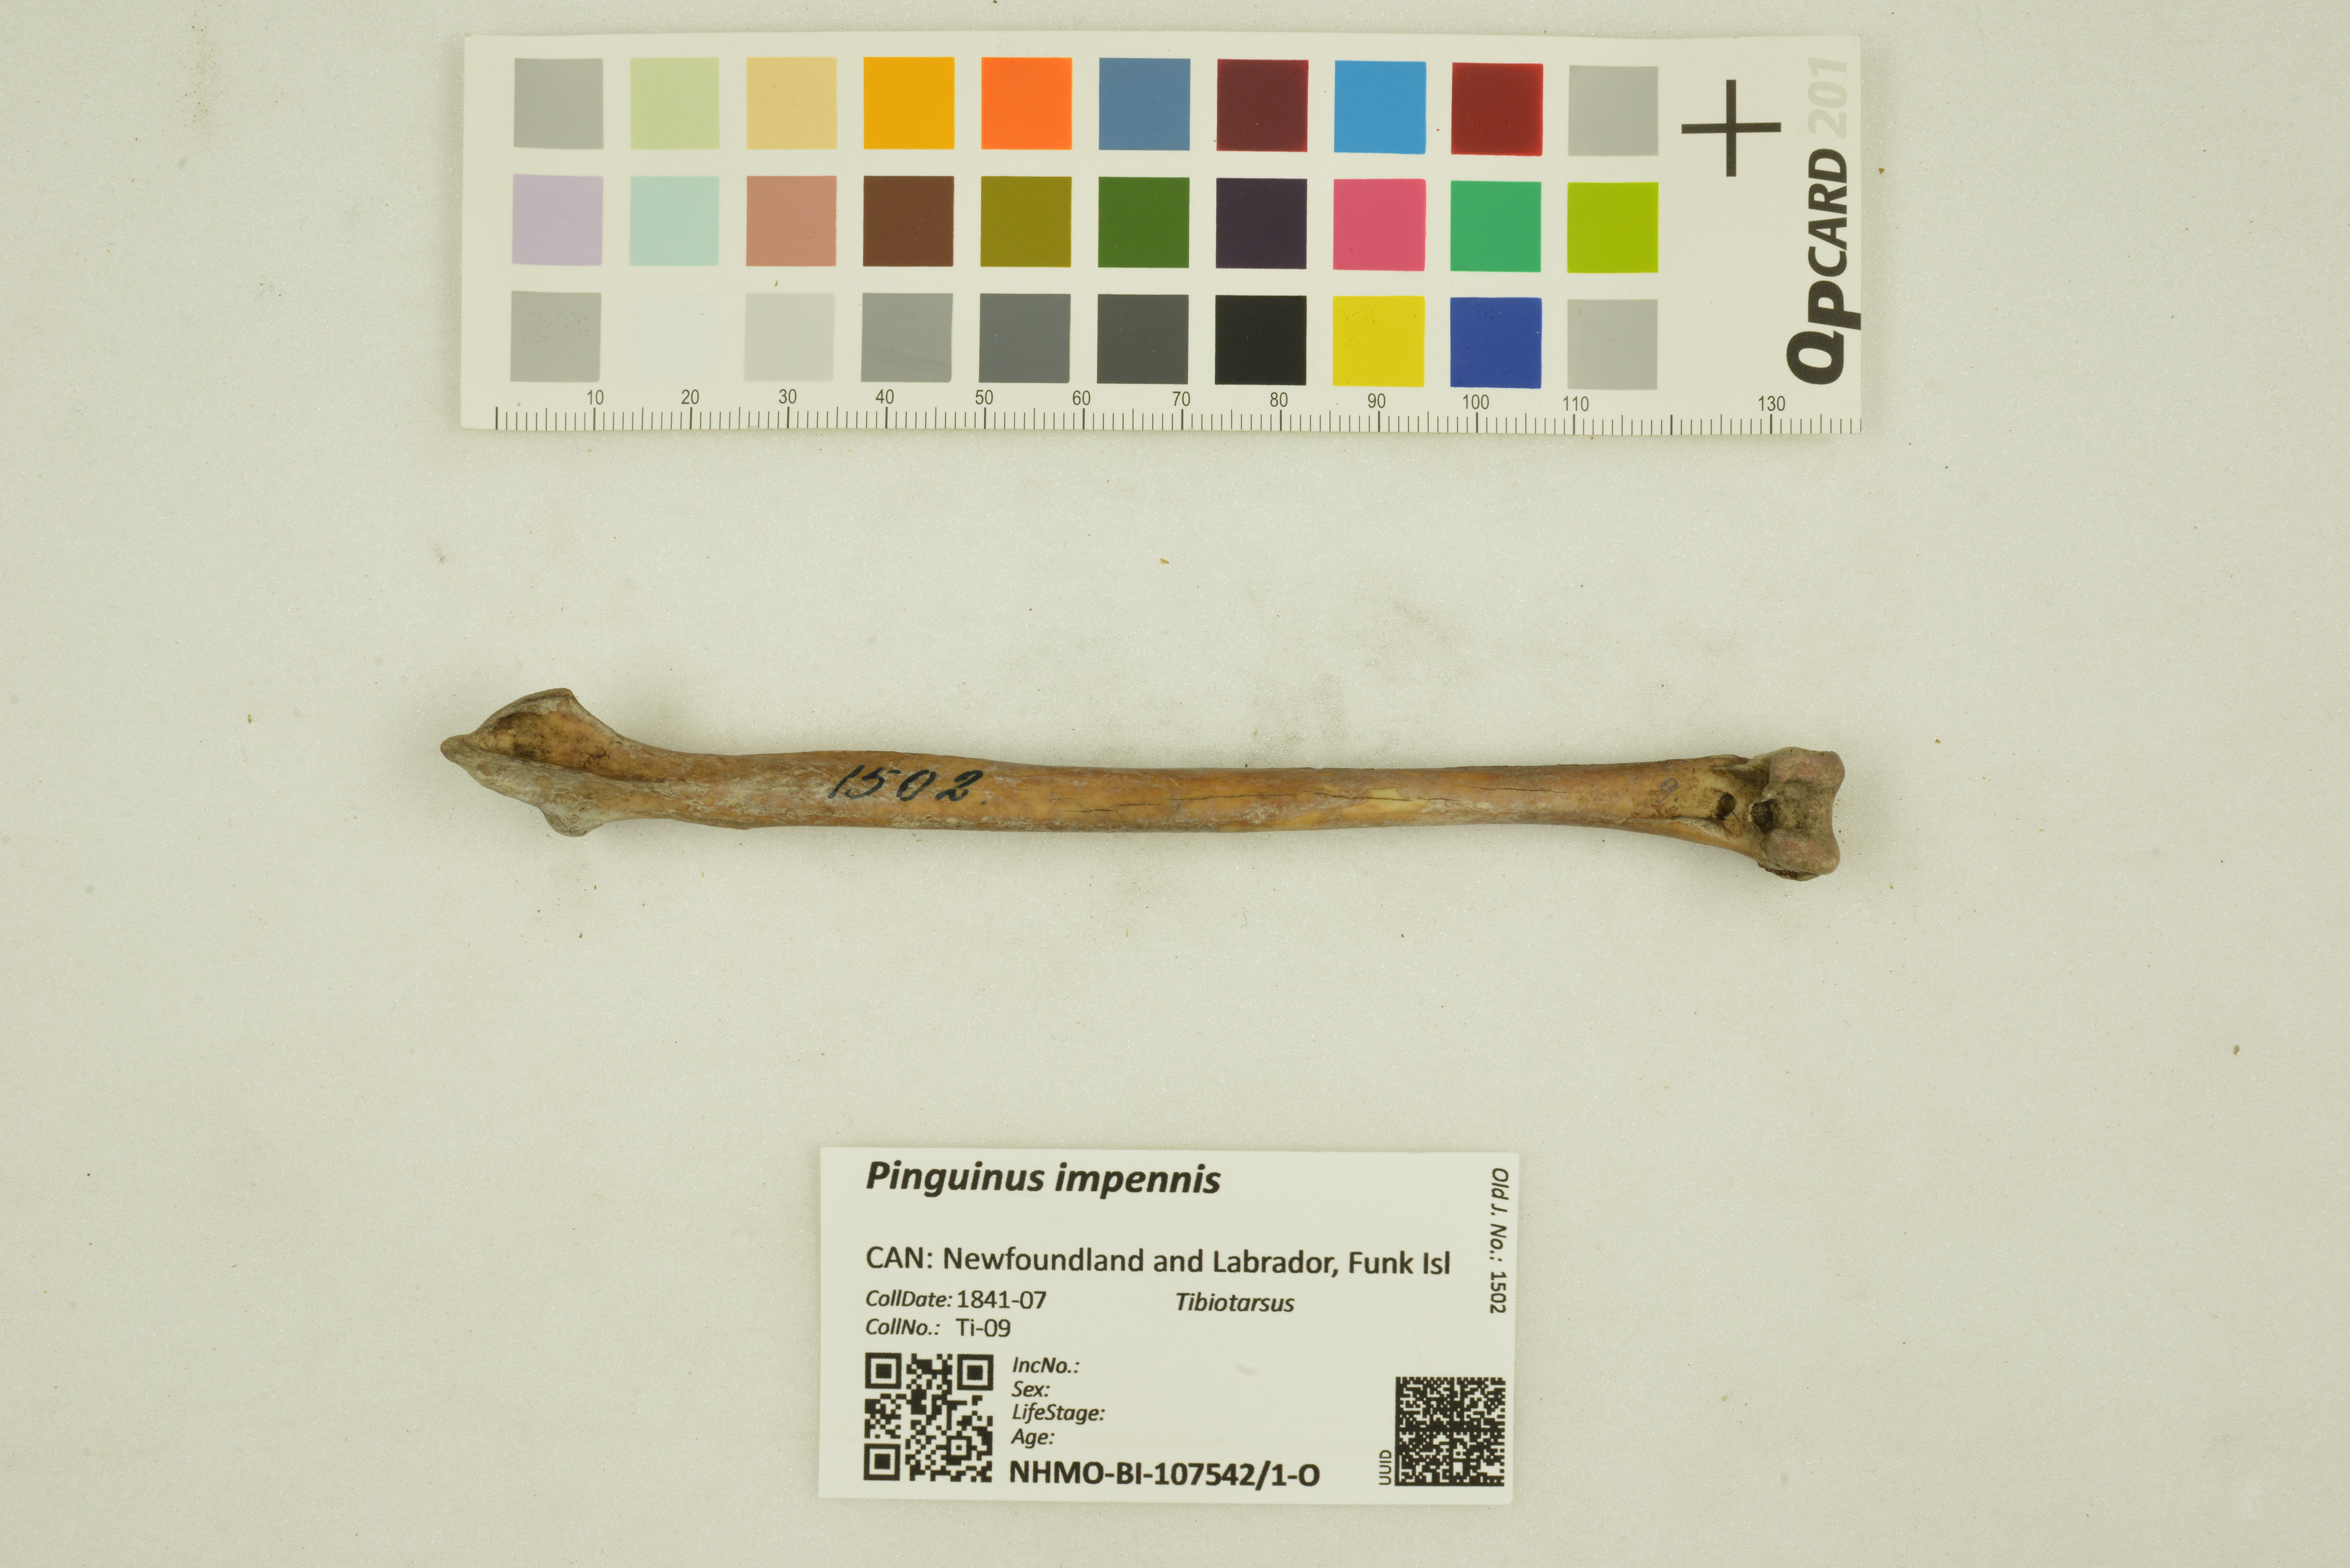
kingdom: Animalia
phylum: Chordata
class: Aves
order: Charadriiformes
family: Alcidae
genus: Pinguinus
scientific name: Pinguinus impennis
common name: Great auk
